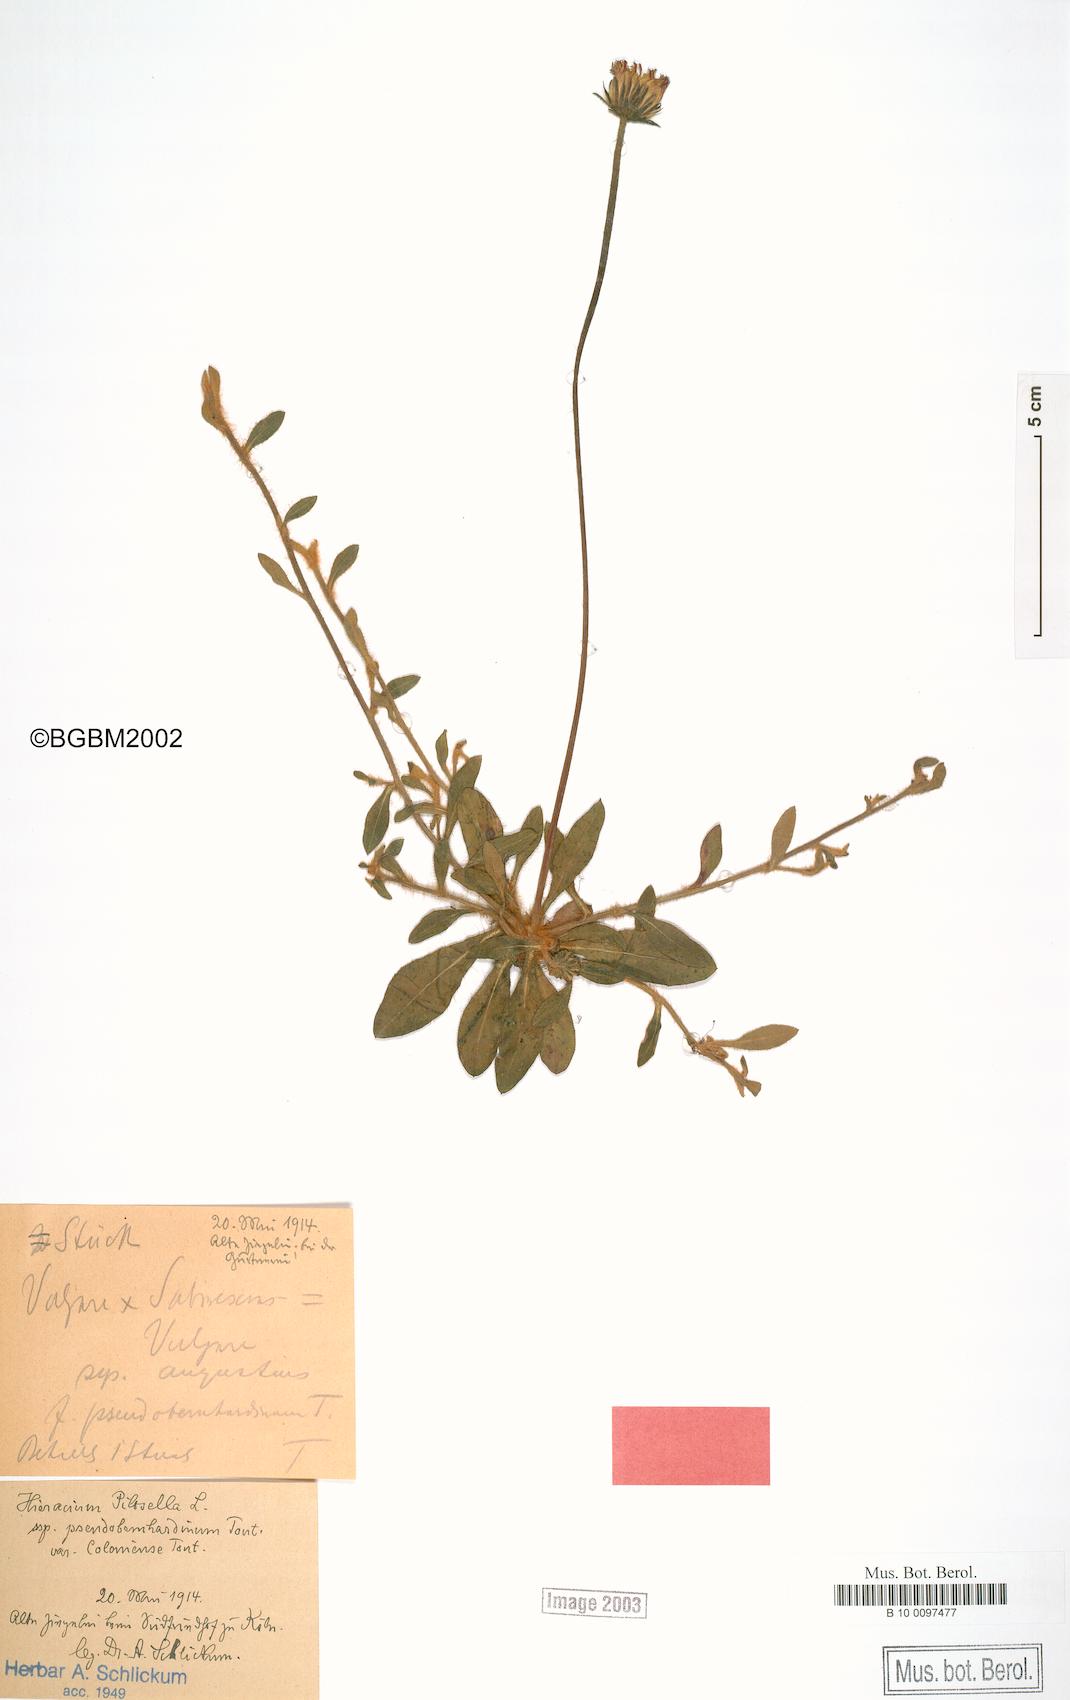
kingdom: Plantae
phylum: Tracheophyta
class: Magnoliopsida
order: Asterales
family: Asteraceae
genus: Pilosella
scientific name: Pilosella officinarum
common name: Mouse-ear hawkweed
